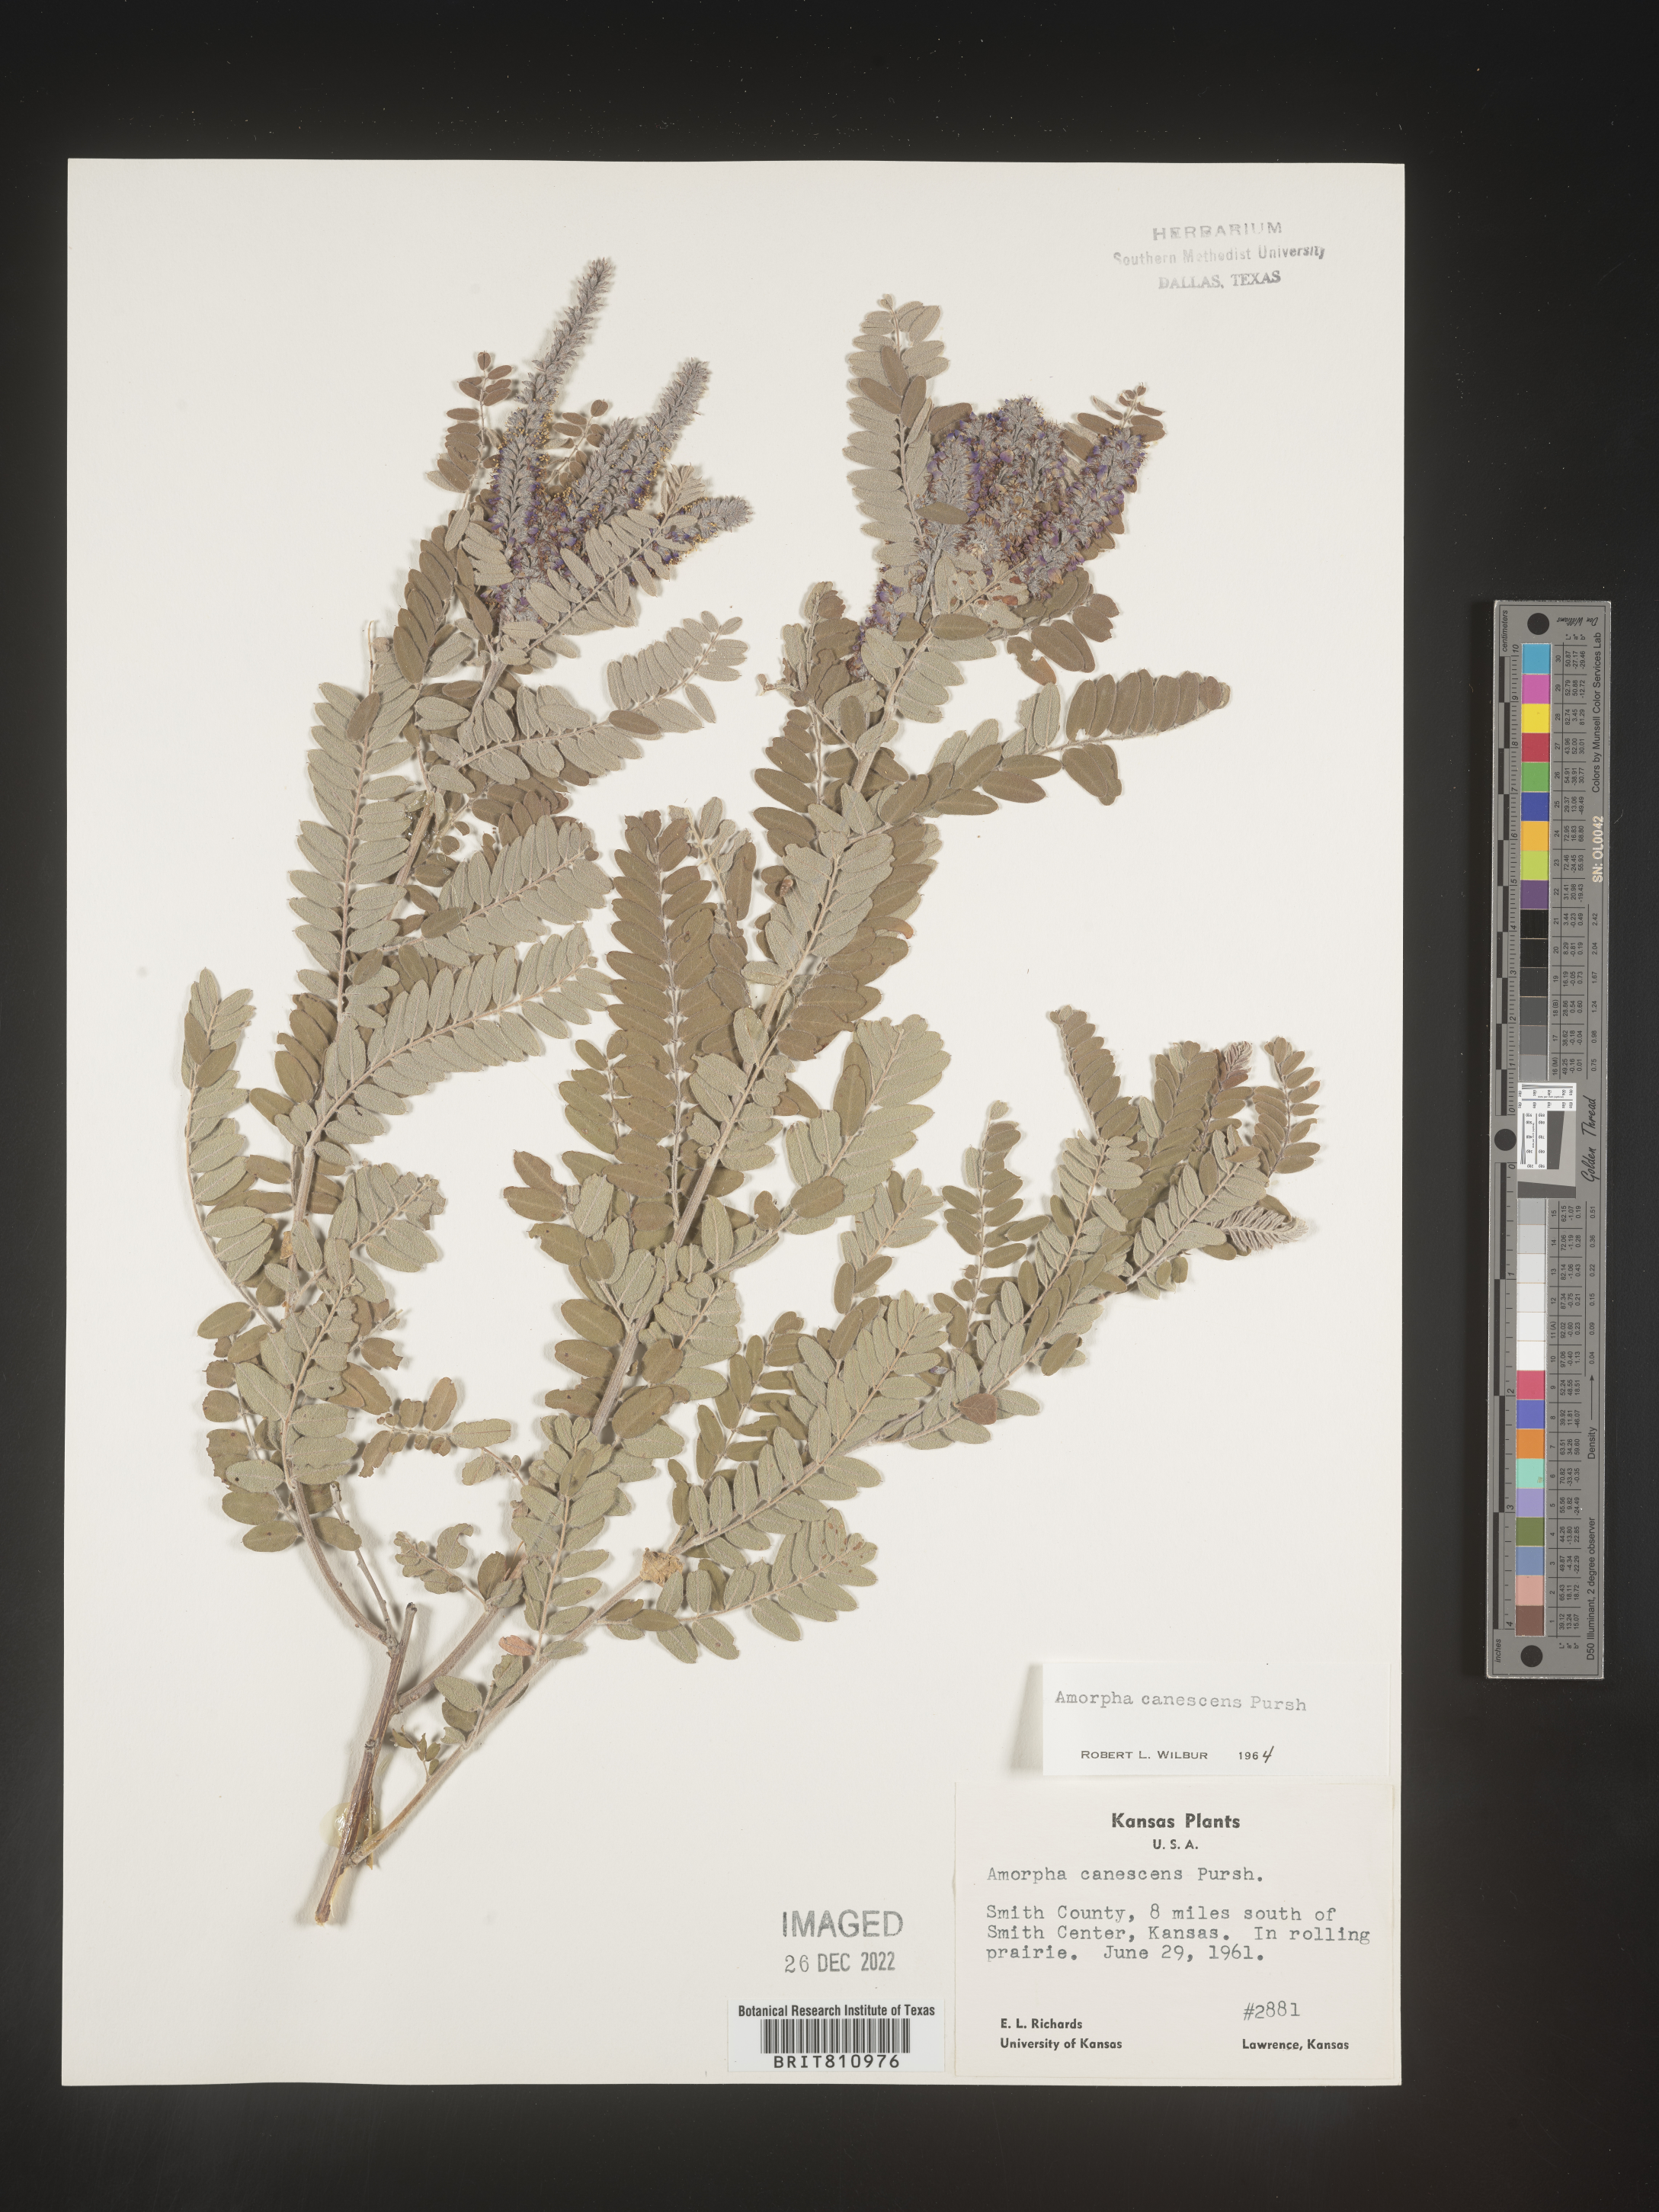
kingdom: Plantae
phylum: Tracheophyta
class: Magnoliopsida
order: Fabales
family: Fabaceae
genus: Amorpha
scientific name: Amorpha canescens
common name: Leadplant
